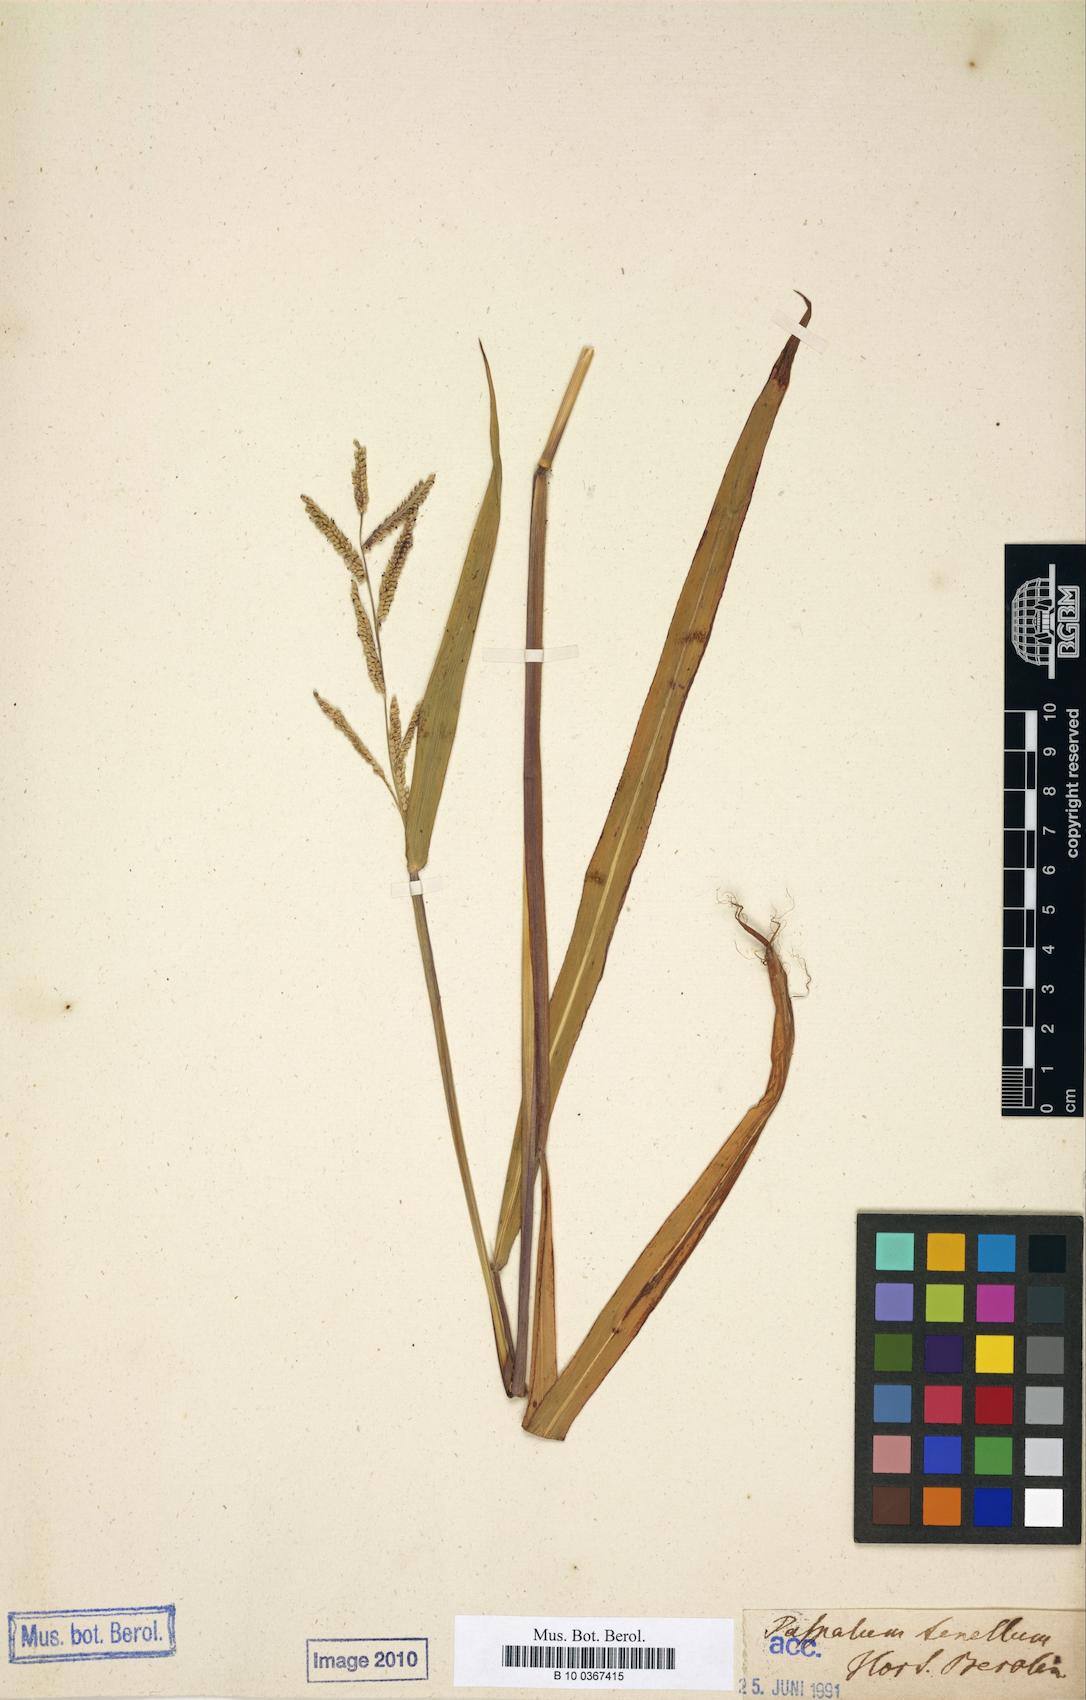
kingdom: Plantae
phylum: Tracheophyta
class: Liliopsida
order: Poales
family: Poaceae
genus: Paspalum
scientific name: Paspalum tenellum
